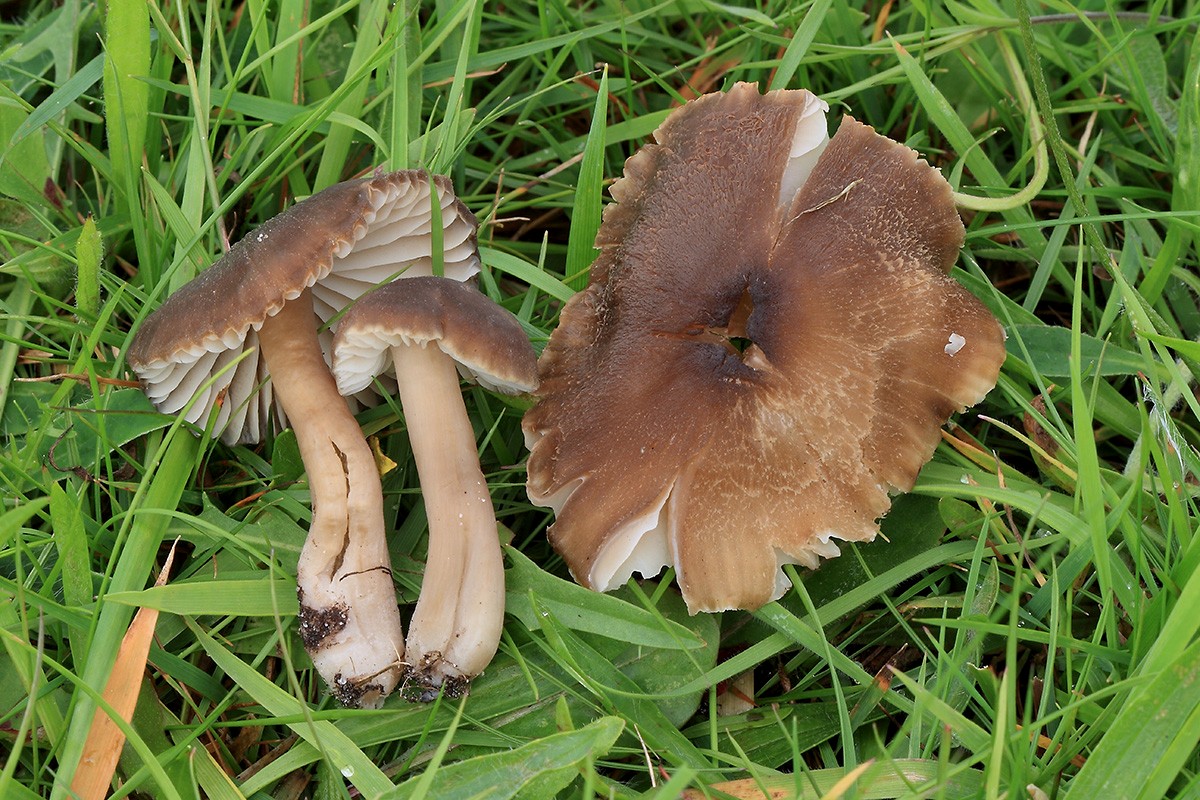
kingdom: Fungi
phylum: Basidiomycota
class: Agaricomycetes
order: Agaricales
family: Hygrophoraceae
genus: Neohygrocybe
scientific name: Neohygrocybe nitrata
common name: stinkende vokshat
